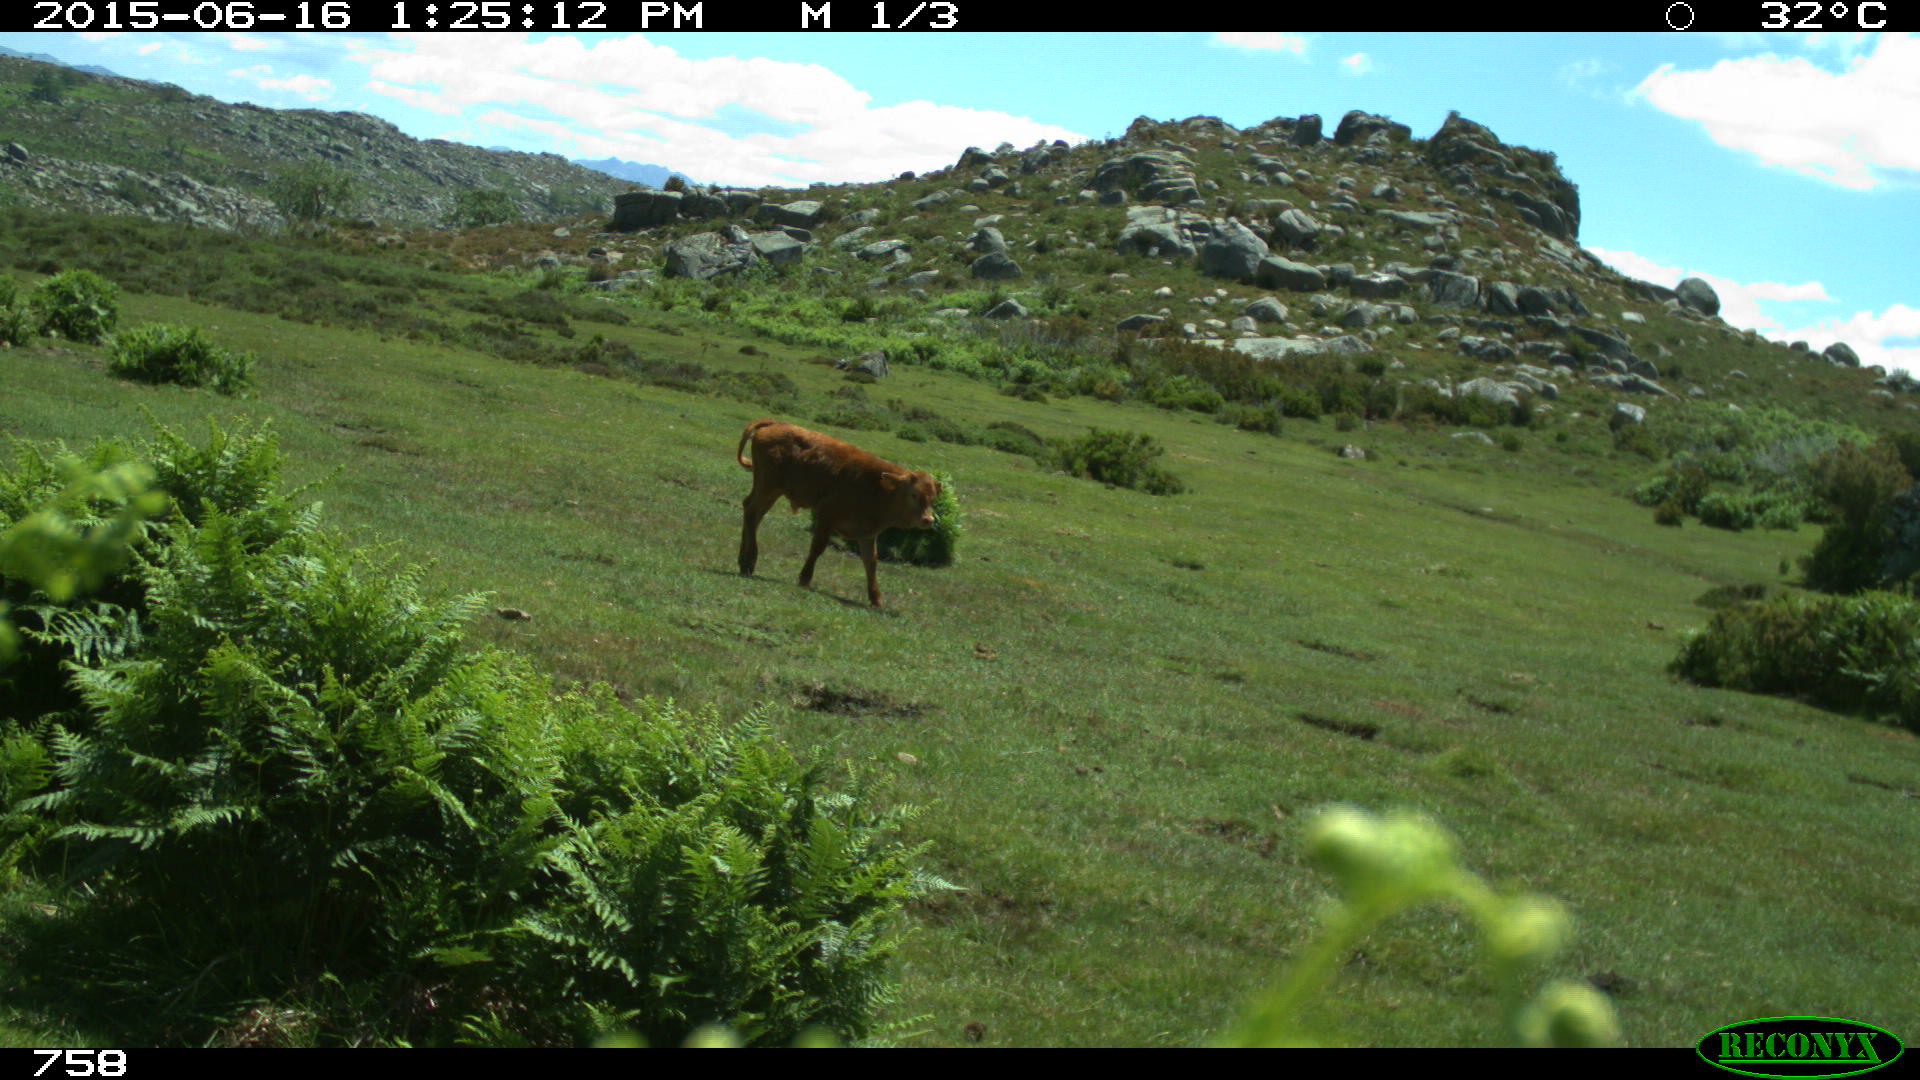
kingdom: Animalia
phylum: Chordata
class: Mammalia
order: Artiodactyla
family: Bovidae
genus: Bos
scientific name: Bos taurus
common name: Domesticated cattle
